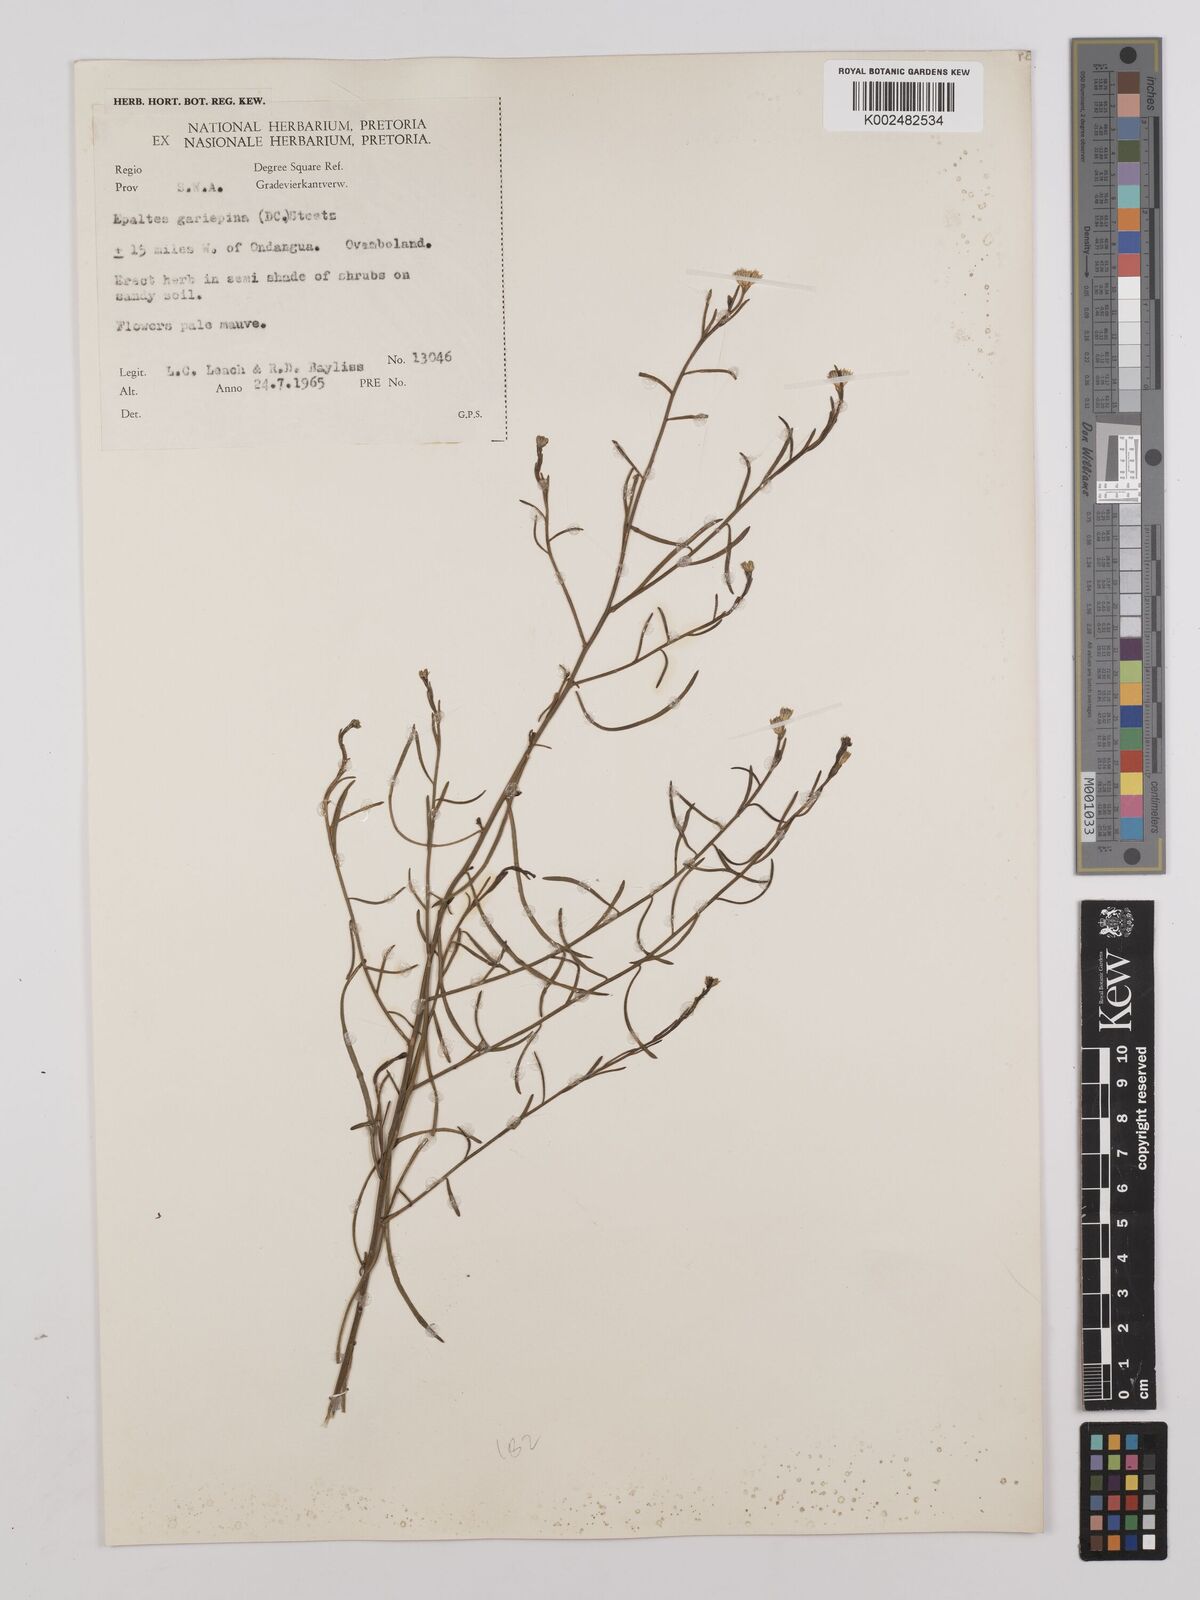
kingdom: Plantae
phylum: Tracheophyta
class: Magnoliopsida
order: Asterales
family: Asteraceae
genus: Litogyne
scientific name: Litogyne gariepina
